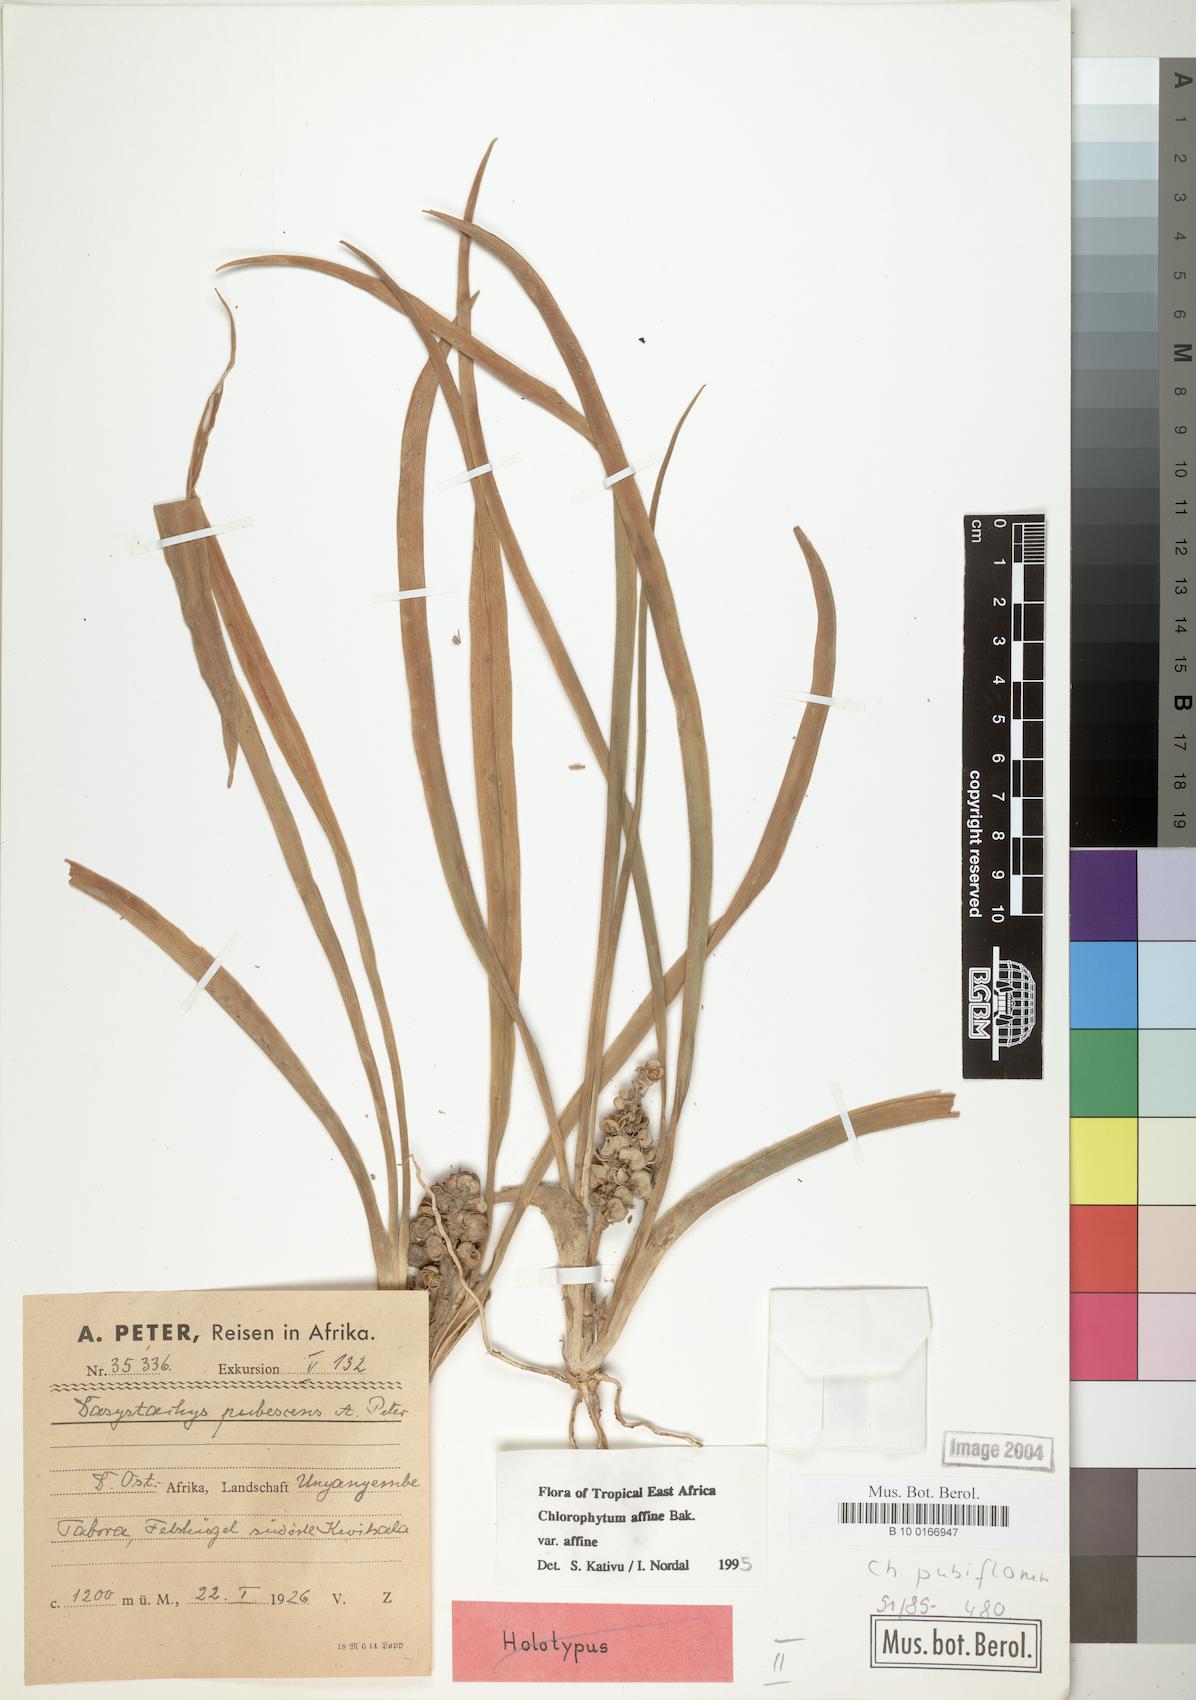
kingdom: Plantae
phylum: Tracheophyta
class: Liliopsida
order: Asparagales
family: Asparagaceae
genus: Chlorophytum
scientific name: Chlorophytum affine
